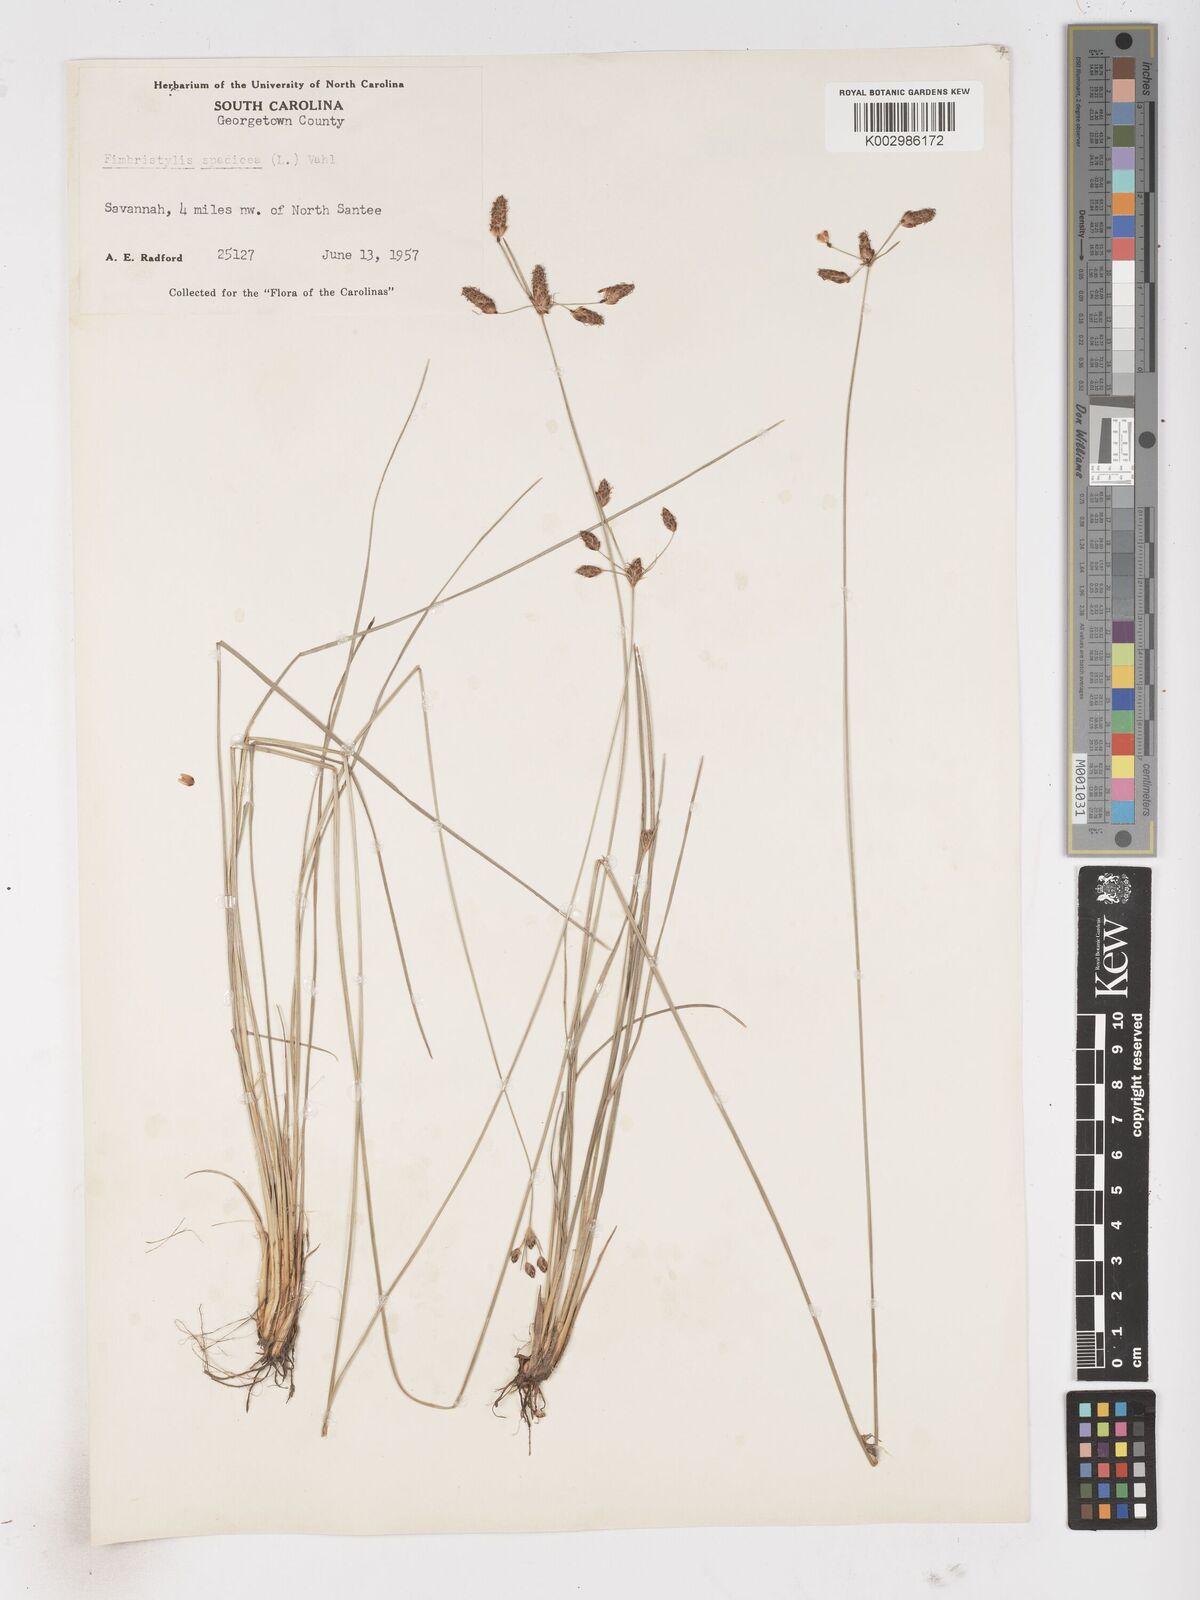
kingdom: Plantae
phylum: Tracheophyta
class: Liliopsida
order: Poales
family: Cyperaceae
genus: Fimbristylis
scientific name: Fimbristylis spadicea
